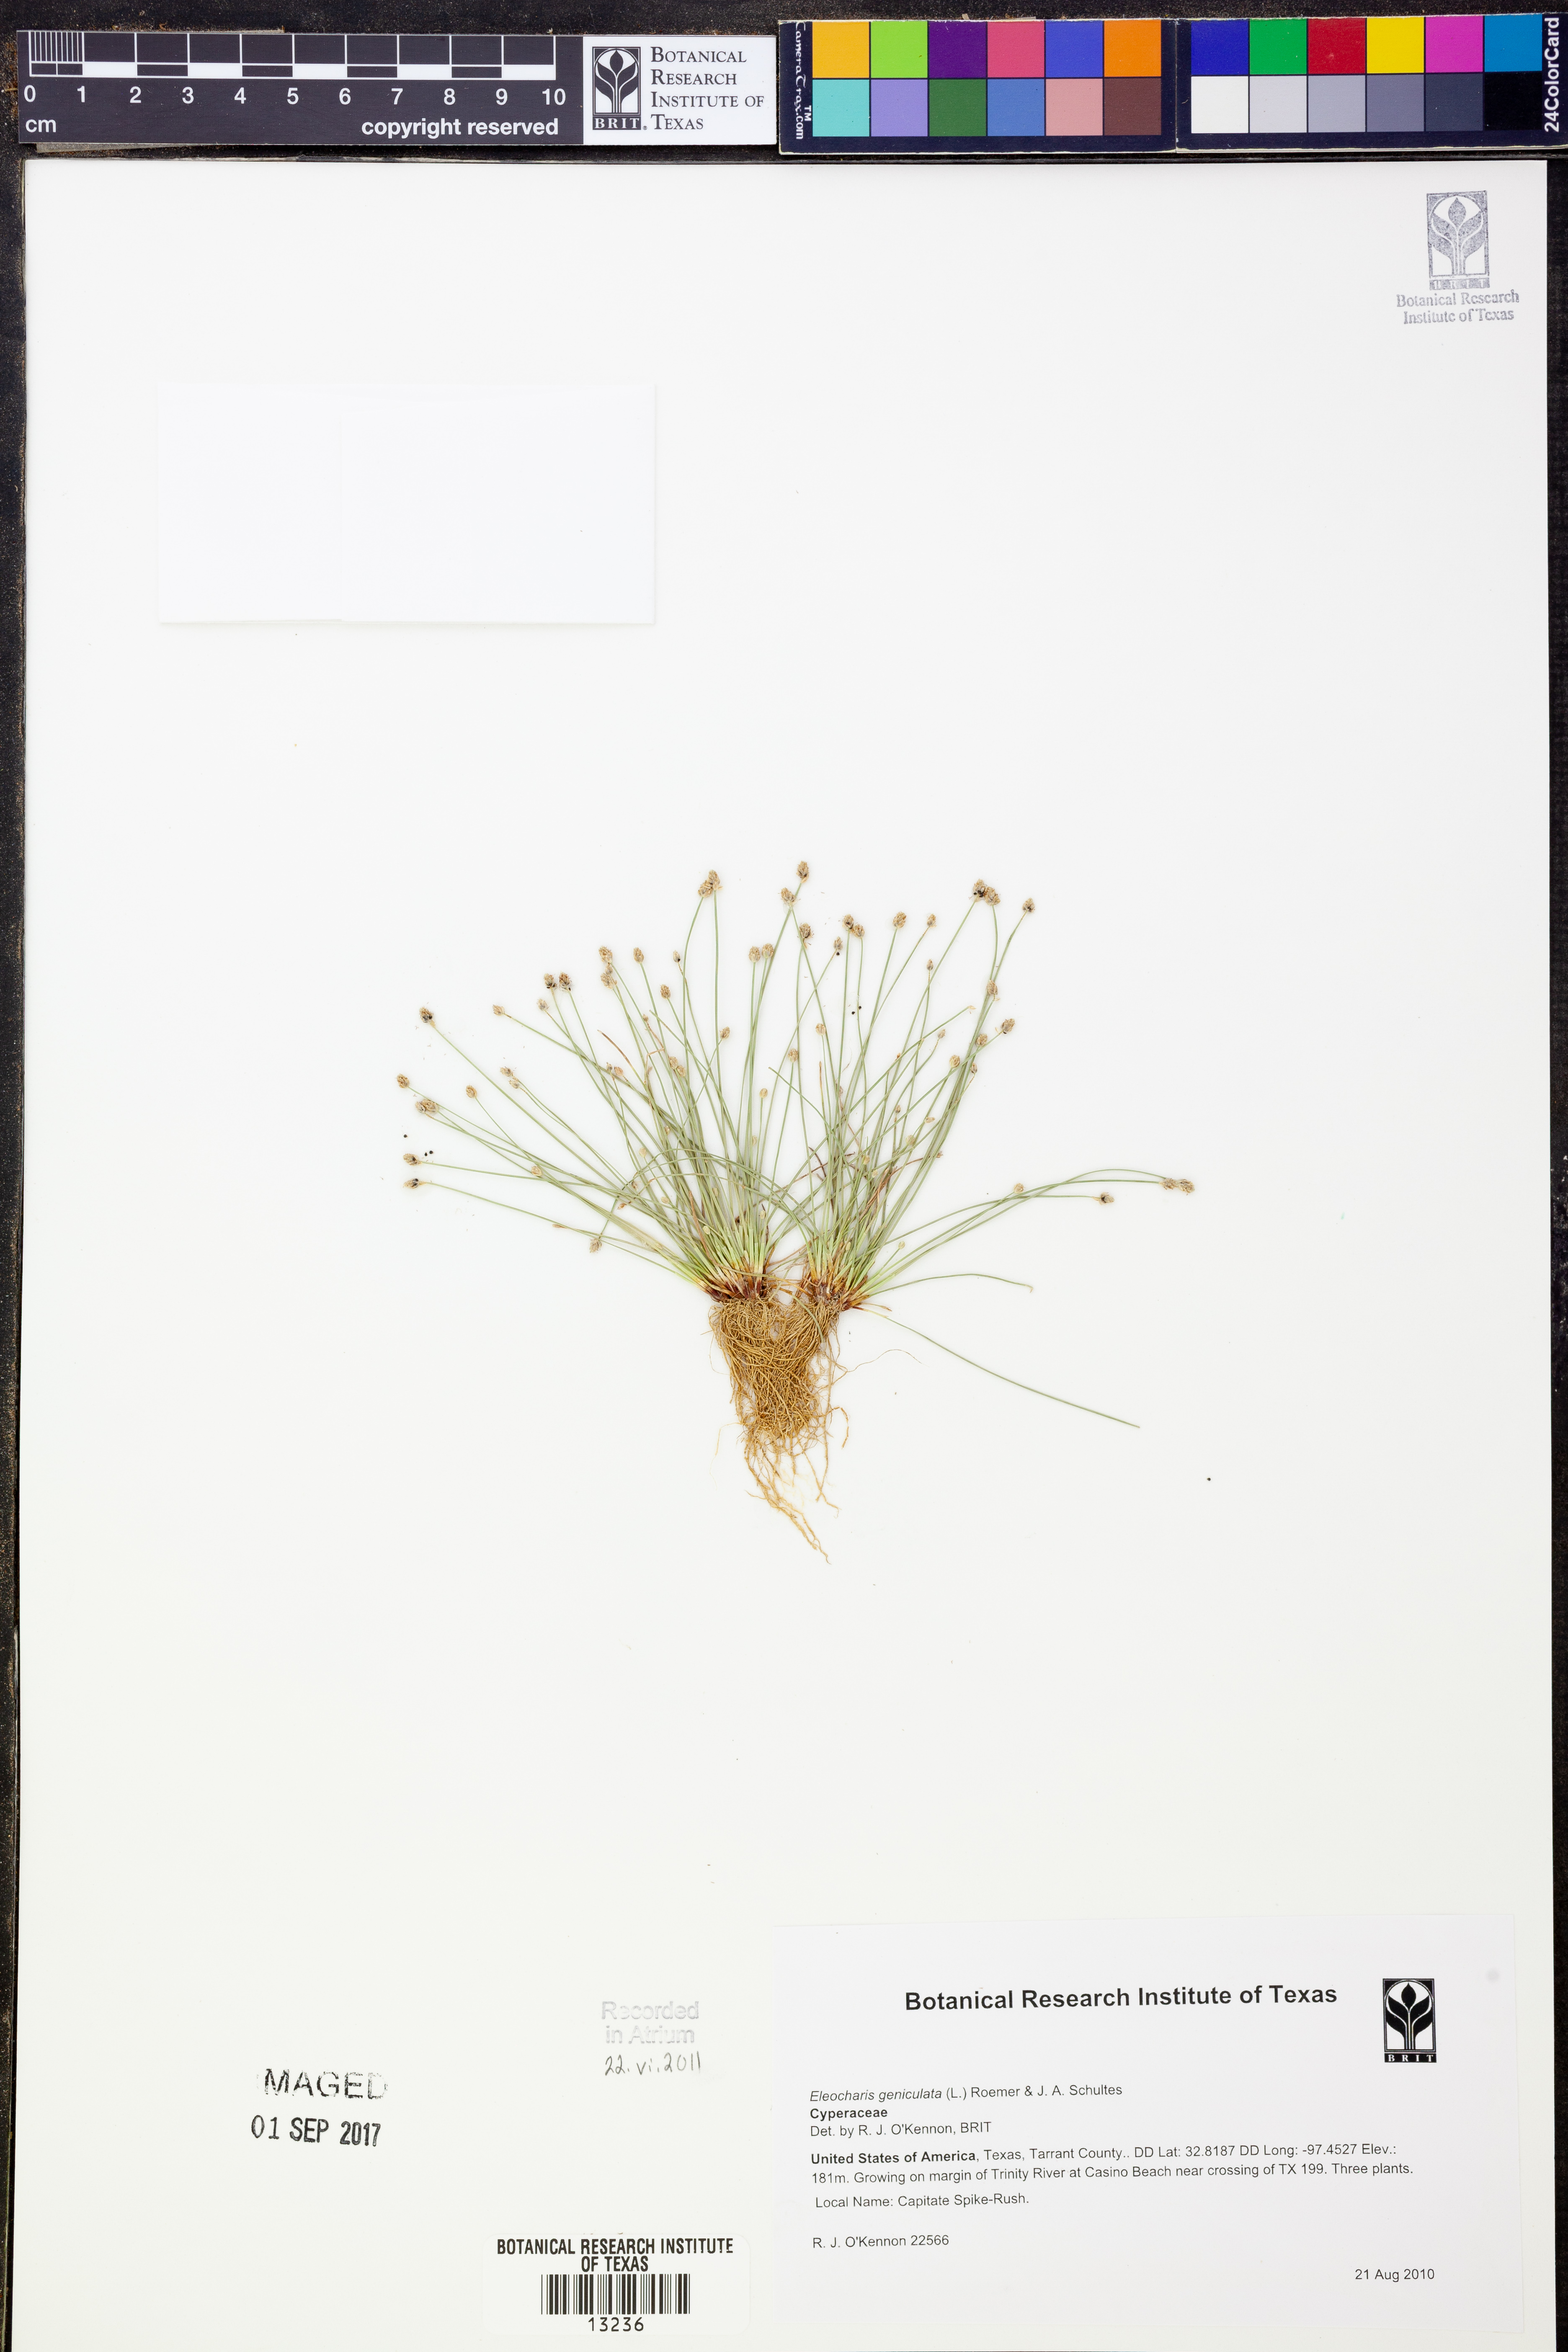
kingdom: Plantae
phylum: Tracheophyta
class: Liliopsida
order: Poales
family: Cyperaceae
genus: Eleocharis
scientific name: Eleocharis geniculata
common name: Canada spikesedge
